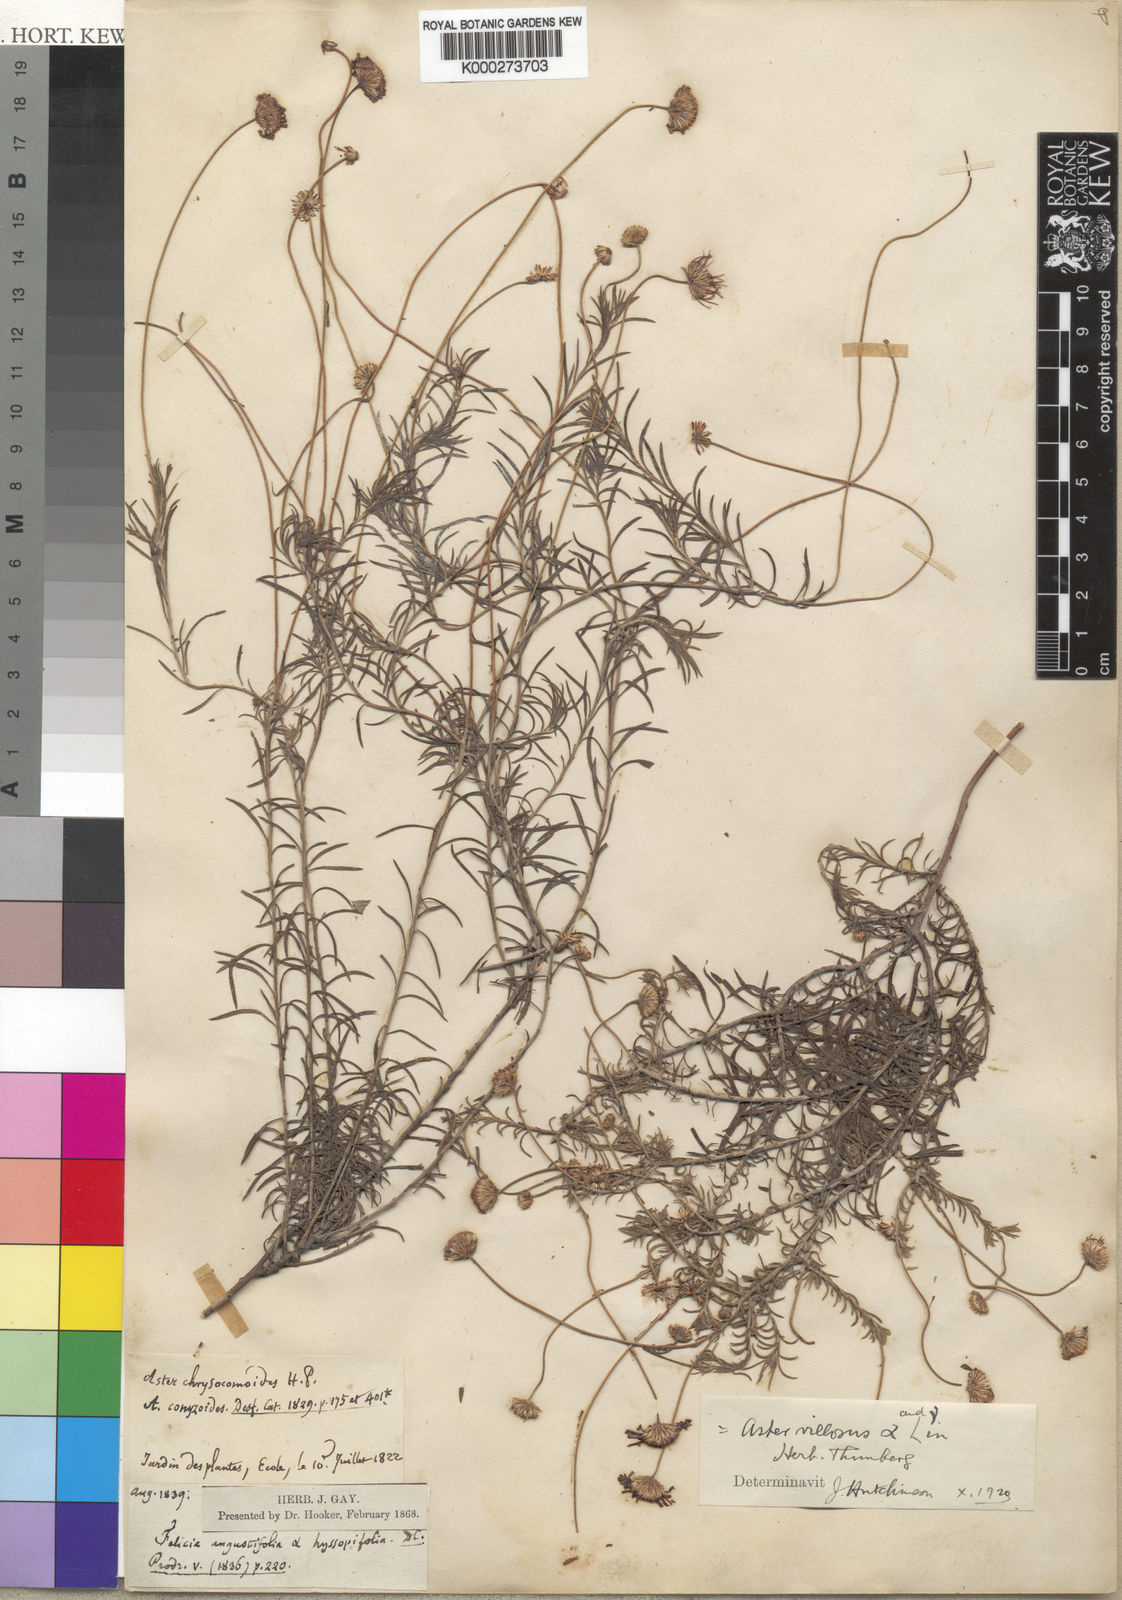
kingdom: Plantae
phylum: Tracheophyta
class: Magnoliopsida
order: Asterales
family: Asteraceae
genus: Felicia
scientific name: Felicia hyssopifolia
